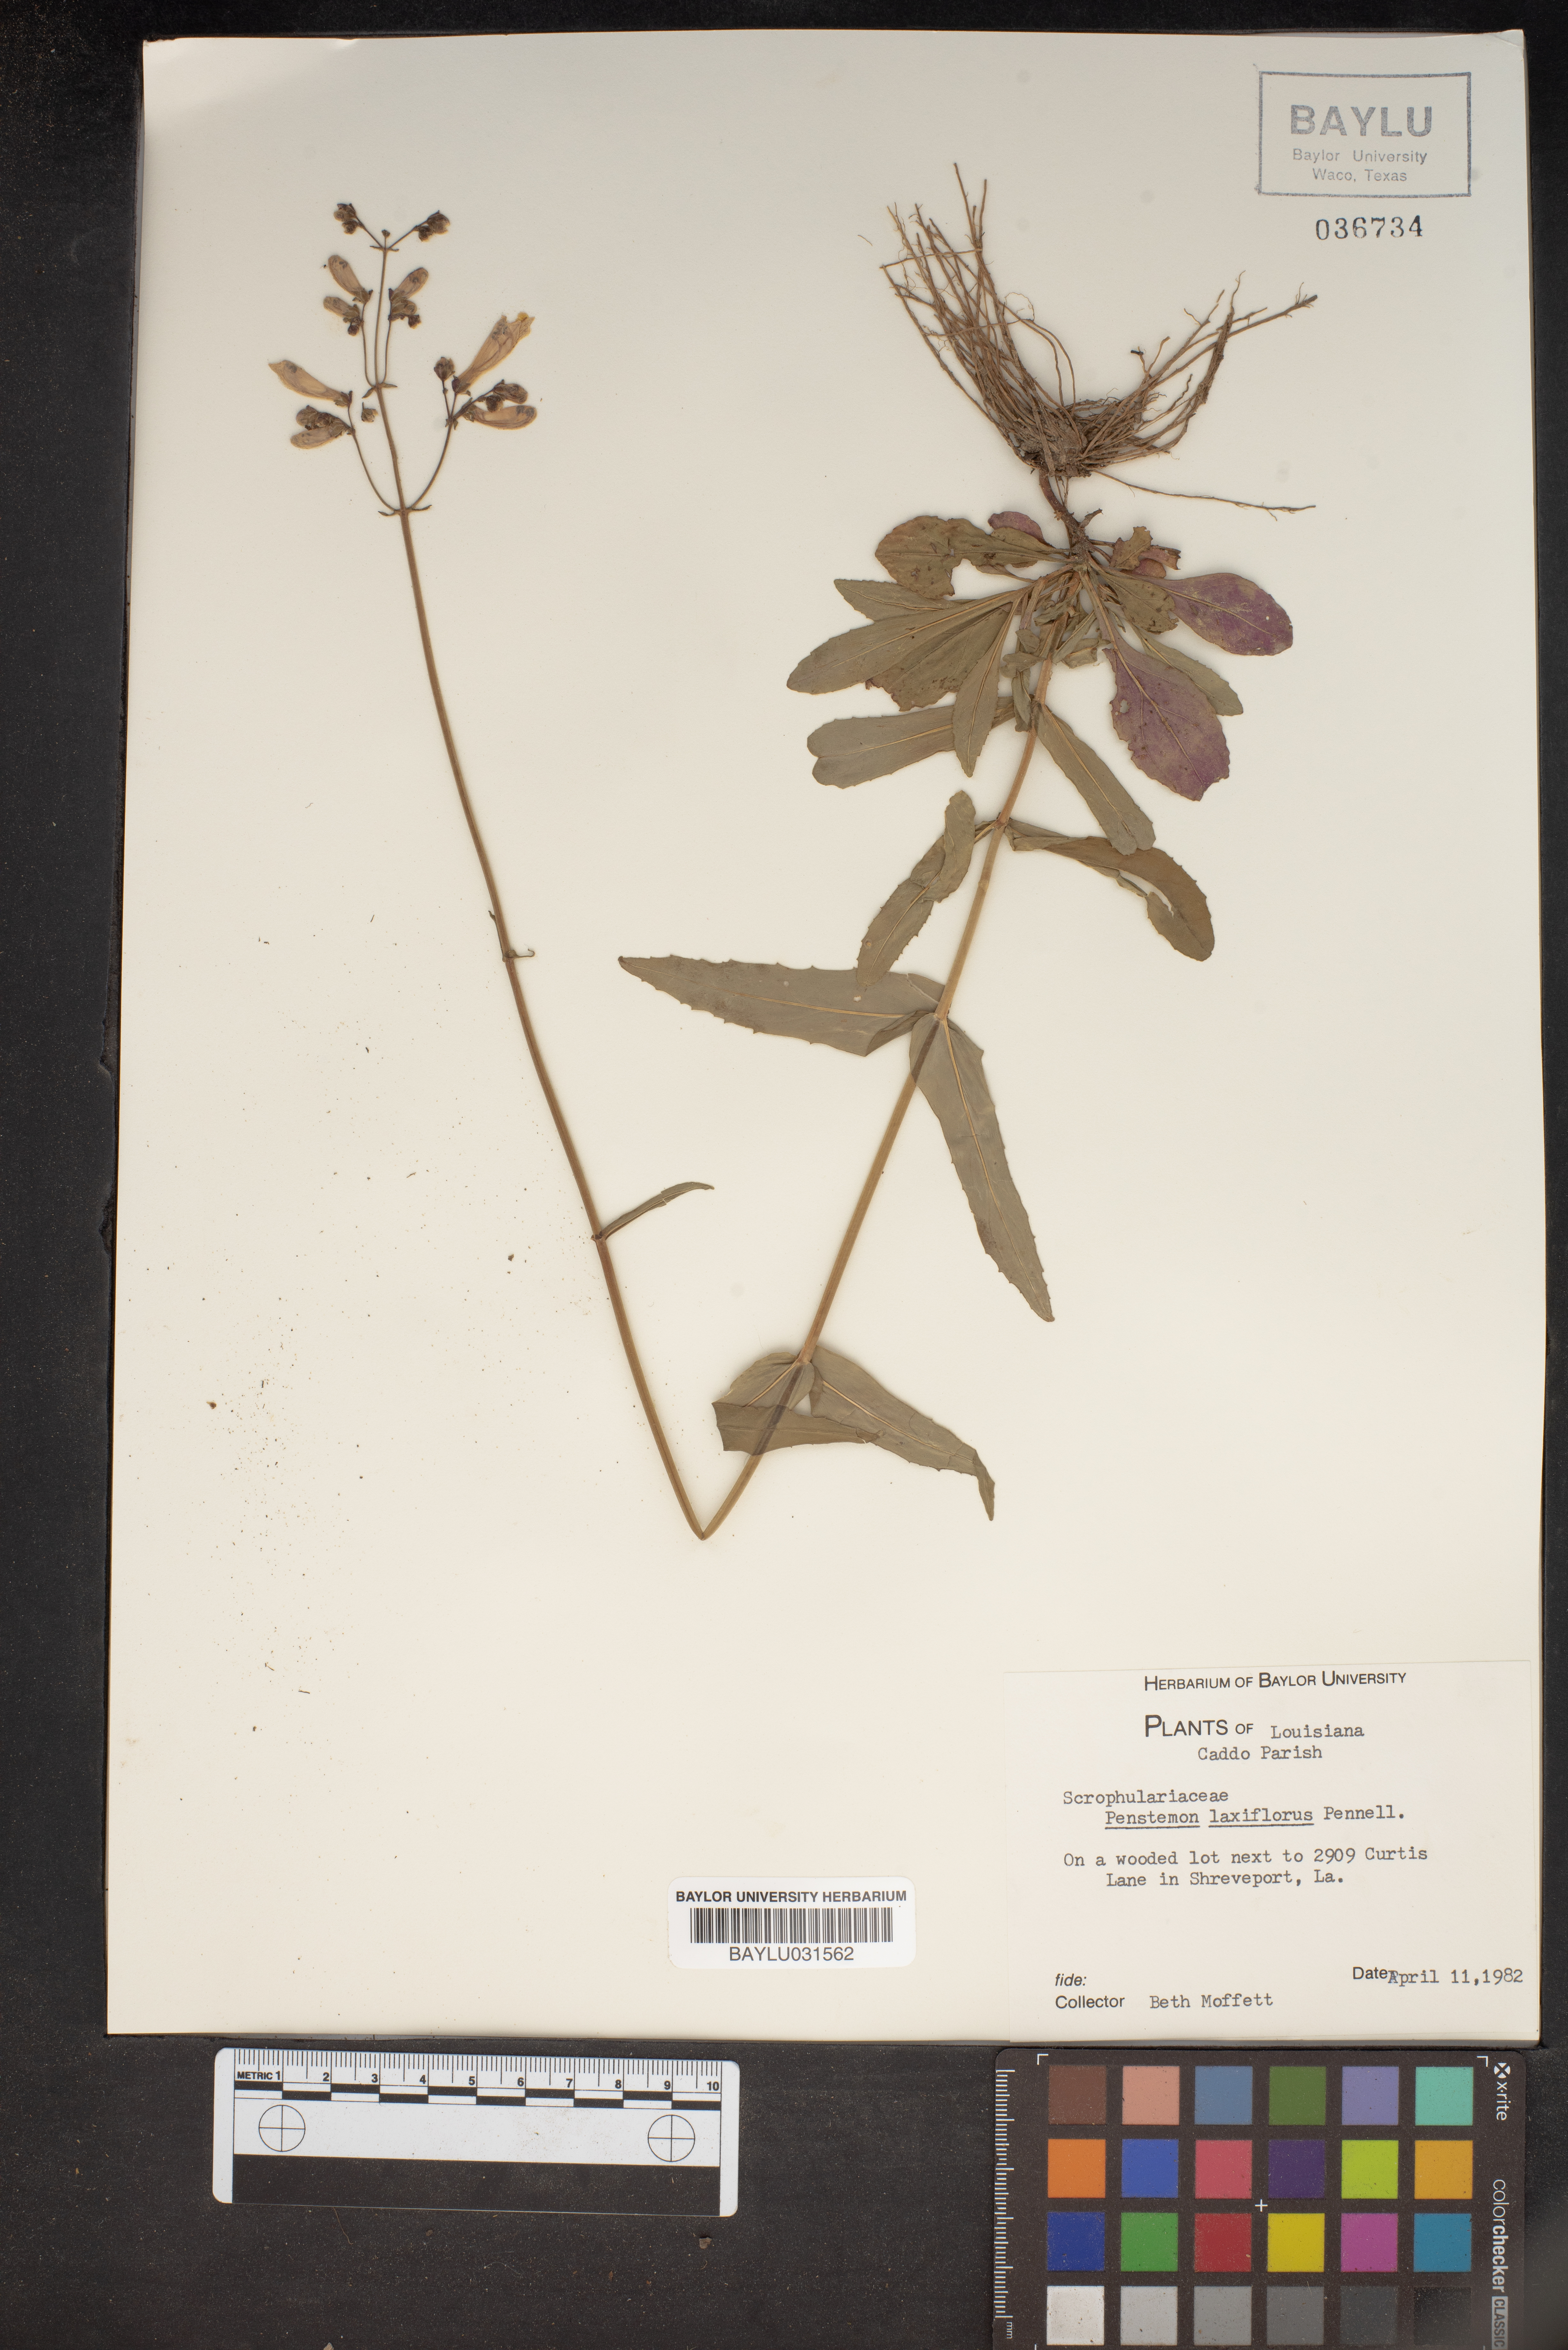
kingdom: Plantae
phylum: Tracheophyta
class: Magnoliopsida
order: Lamiales
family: Plantaginaceae
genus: Penstemon
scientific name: Penstemon laxiflorus
